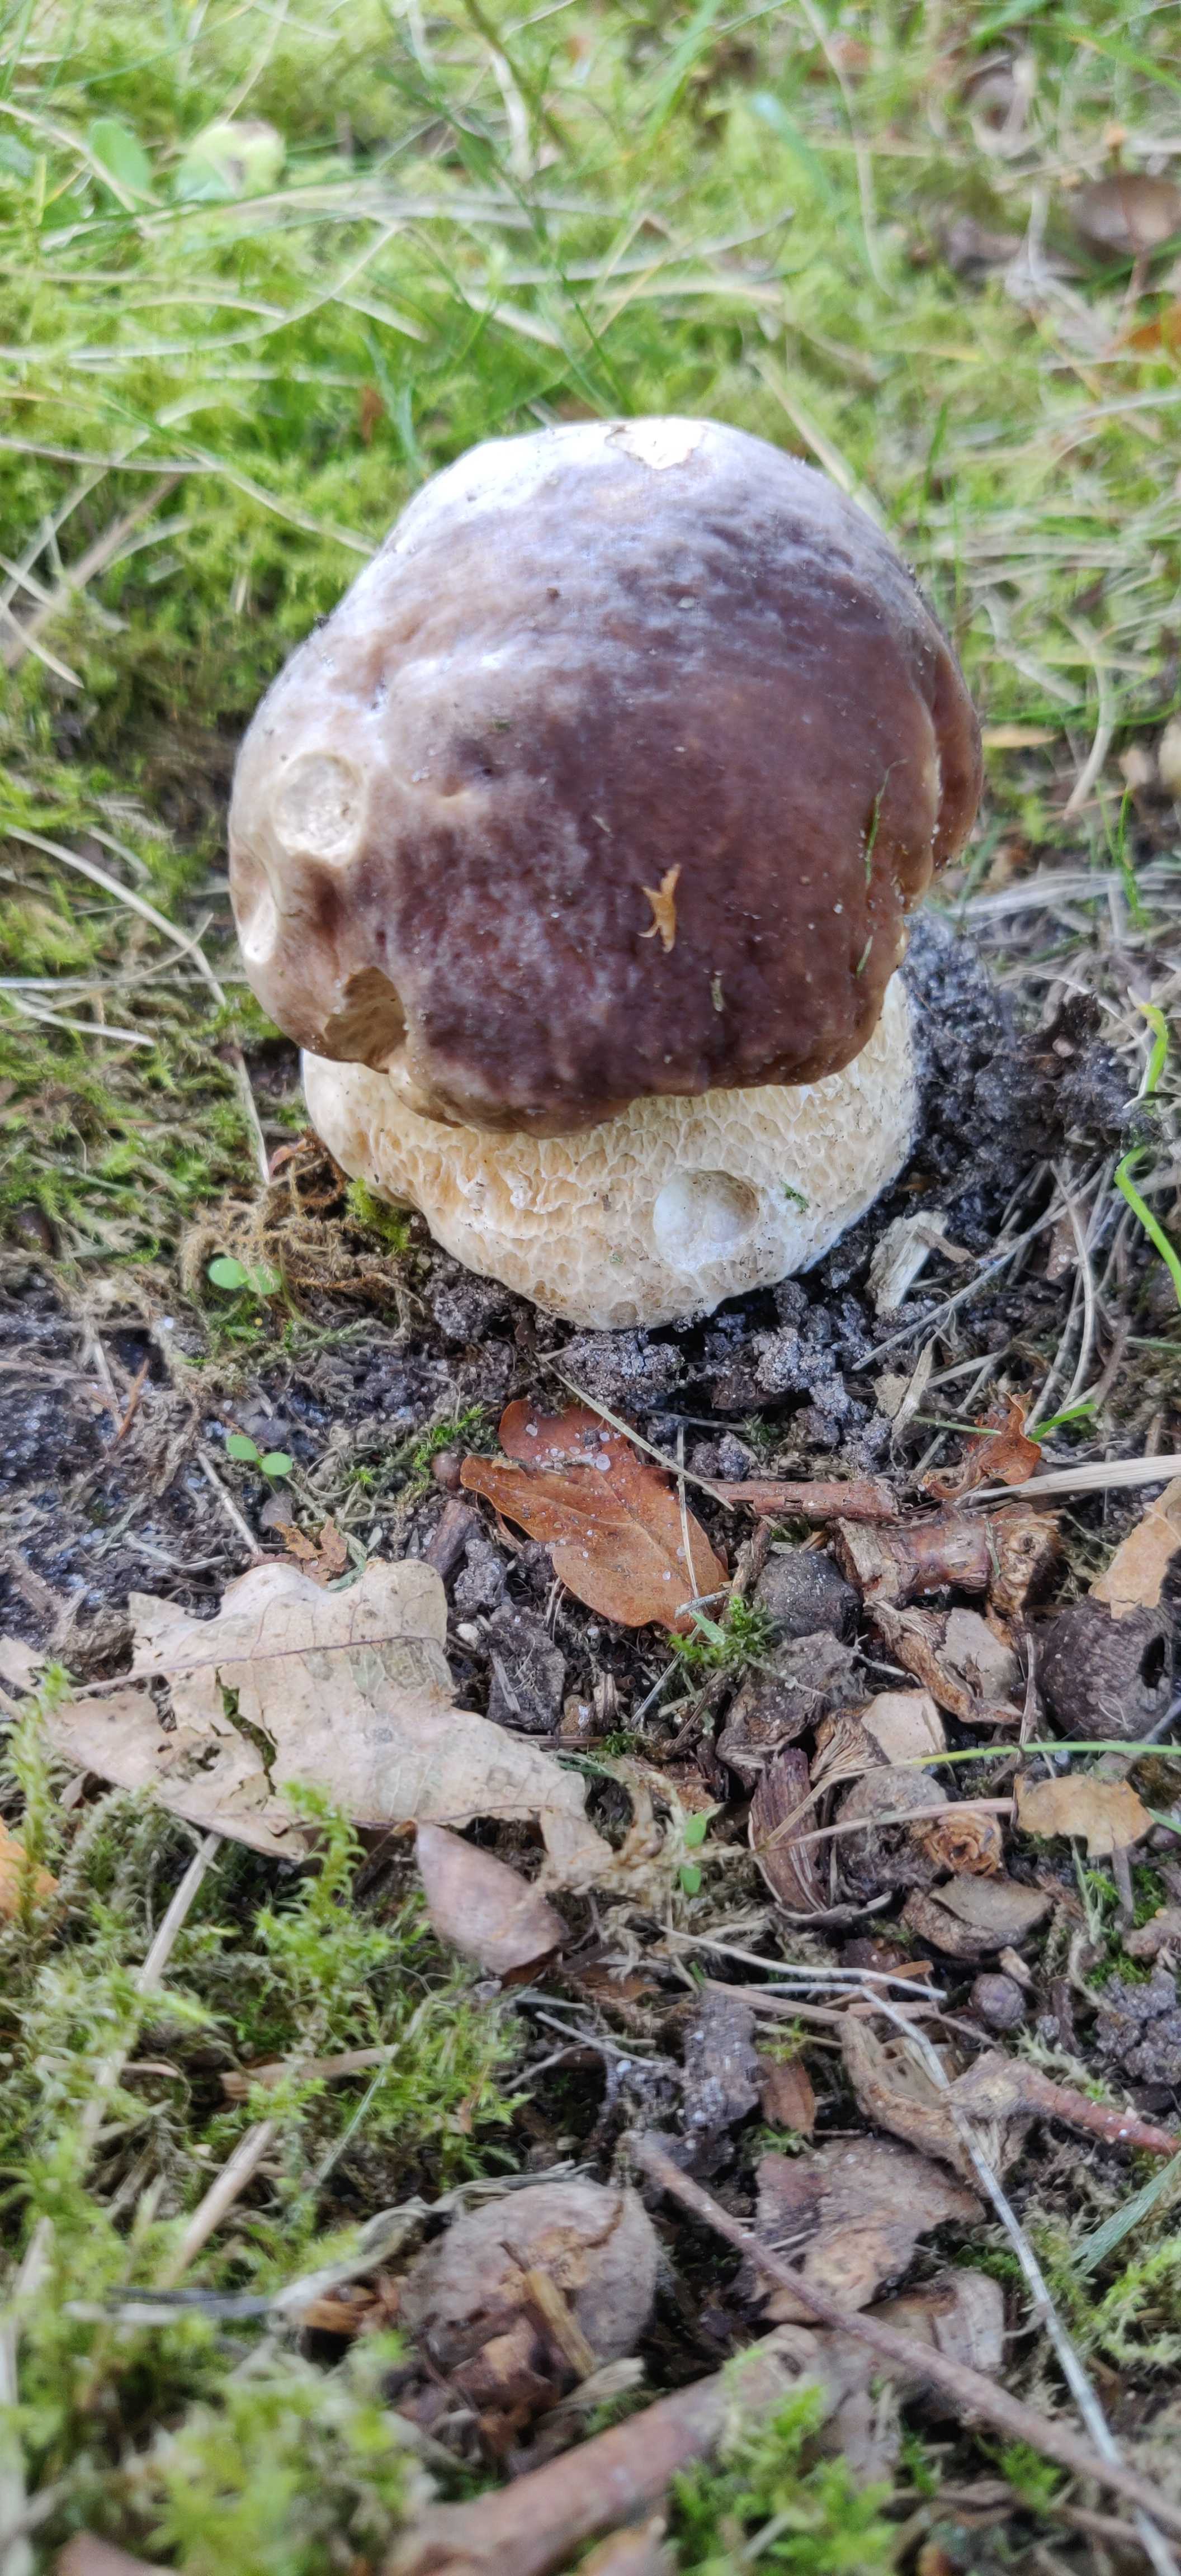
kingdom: Fungi
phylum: Basidiomycota
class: Agaricomycetes
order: Boletales
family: Boletaceae
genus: Boletus
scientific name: Boletus edulis
